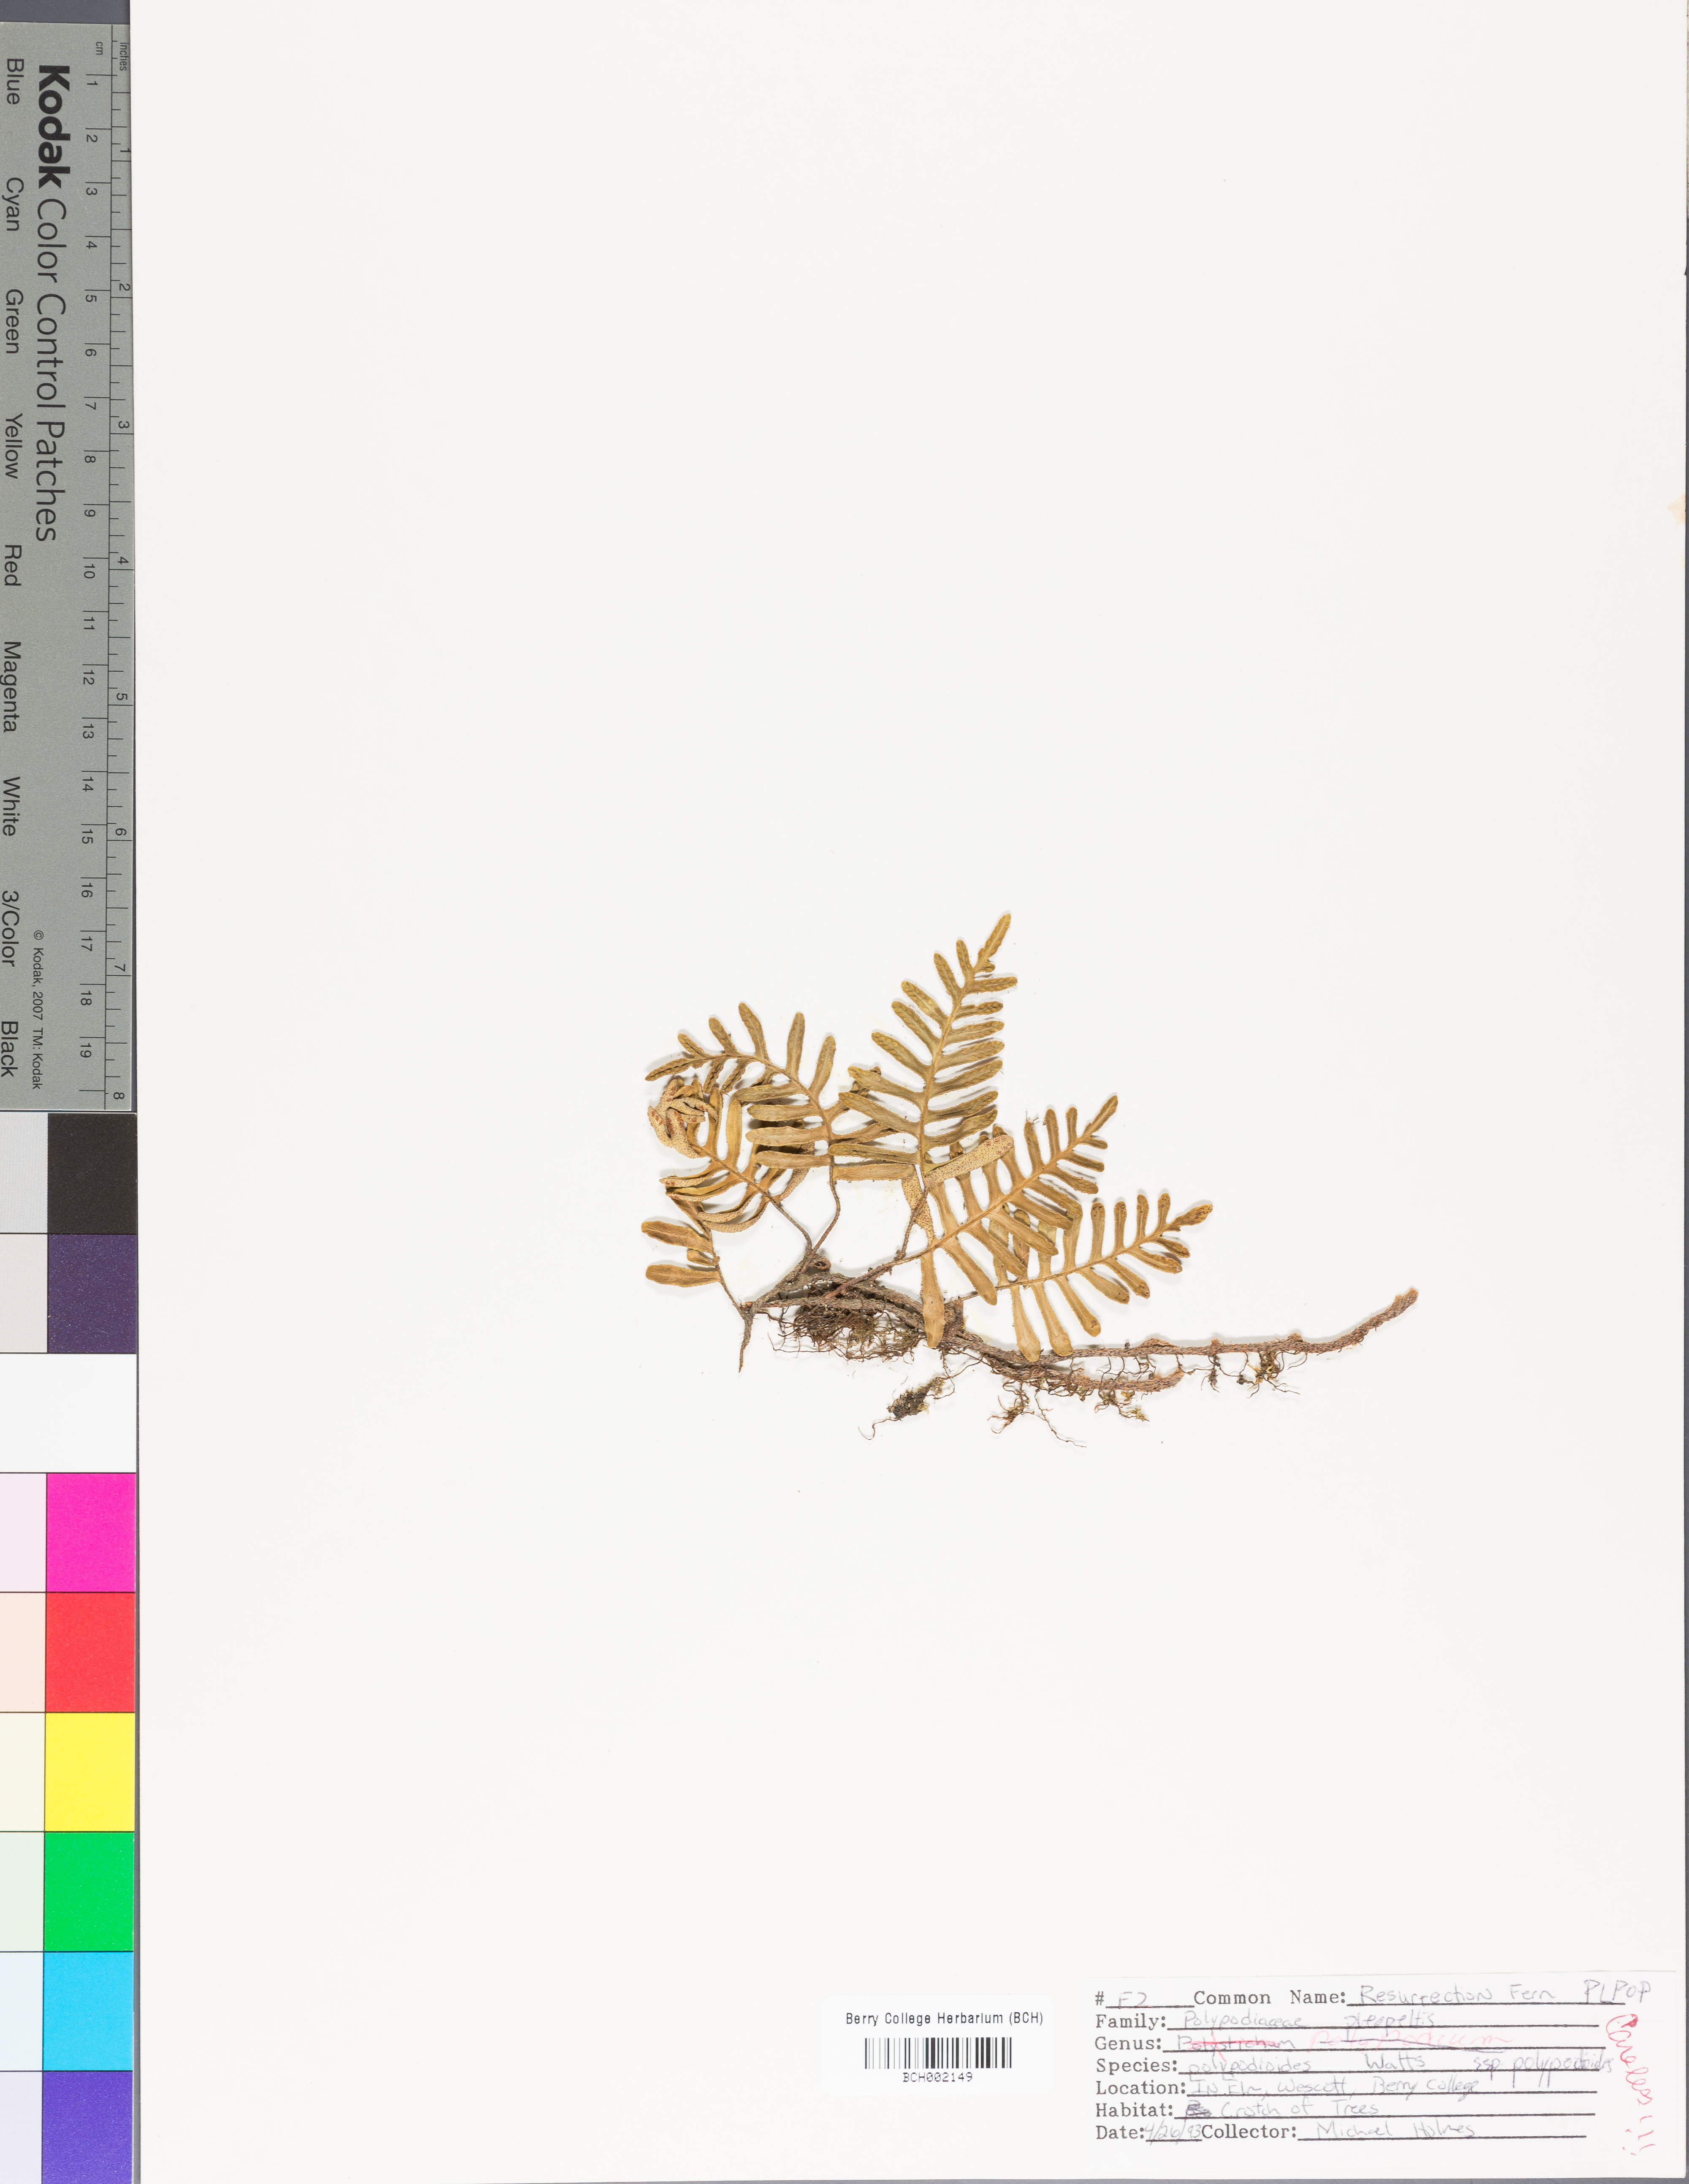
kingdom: Plantae
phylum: Tracheophyta
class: Polypodiopsida
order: Polypodiales
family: Blechnaceae
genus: Lorinseria
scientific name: Lorinseria areolata
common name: Dwarf chain fern
